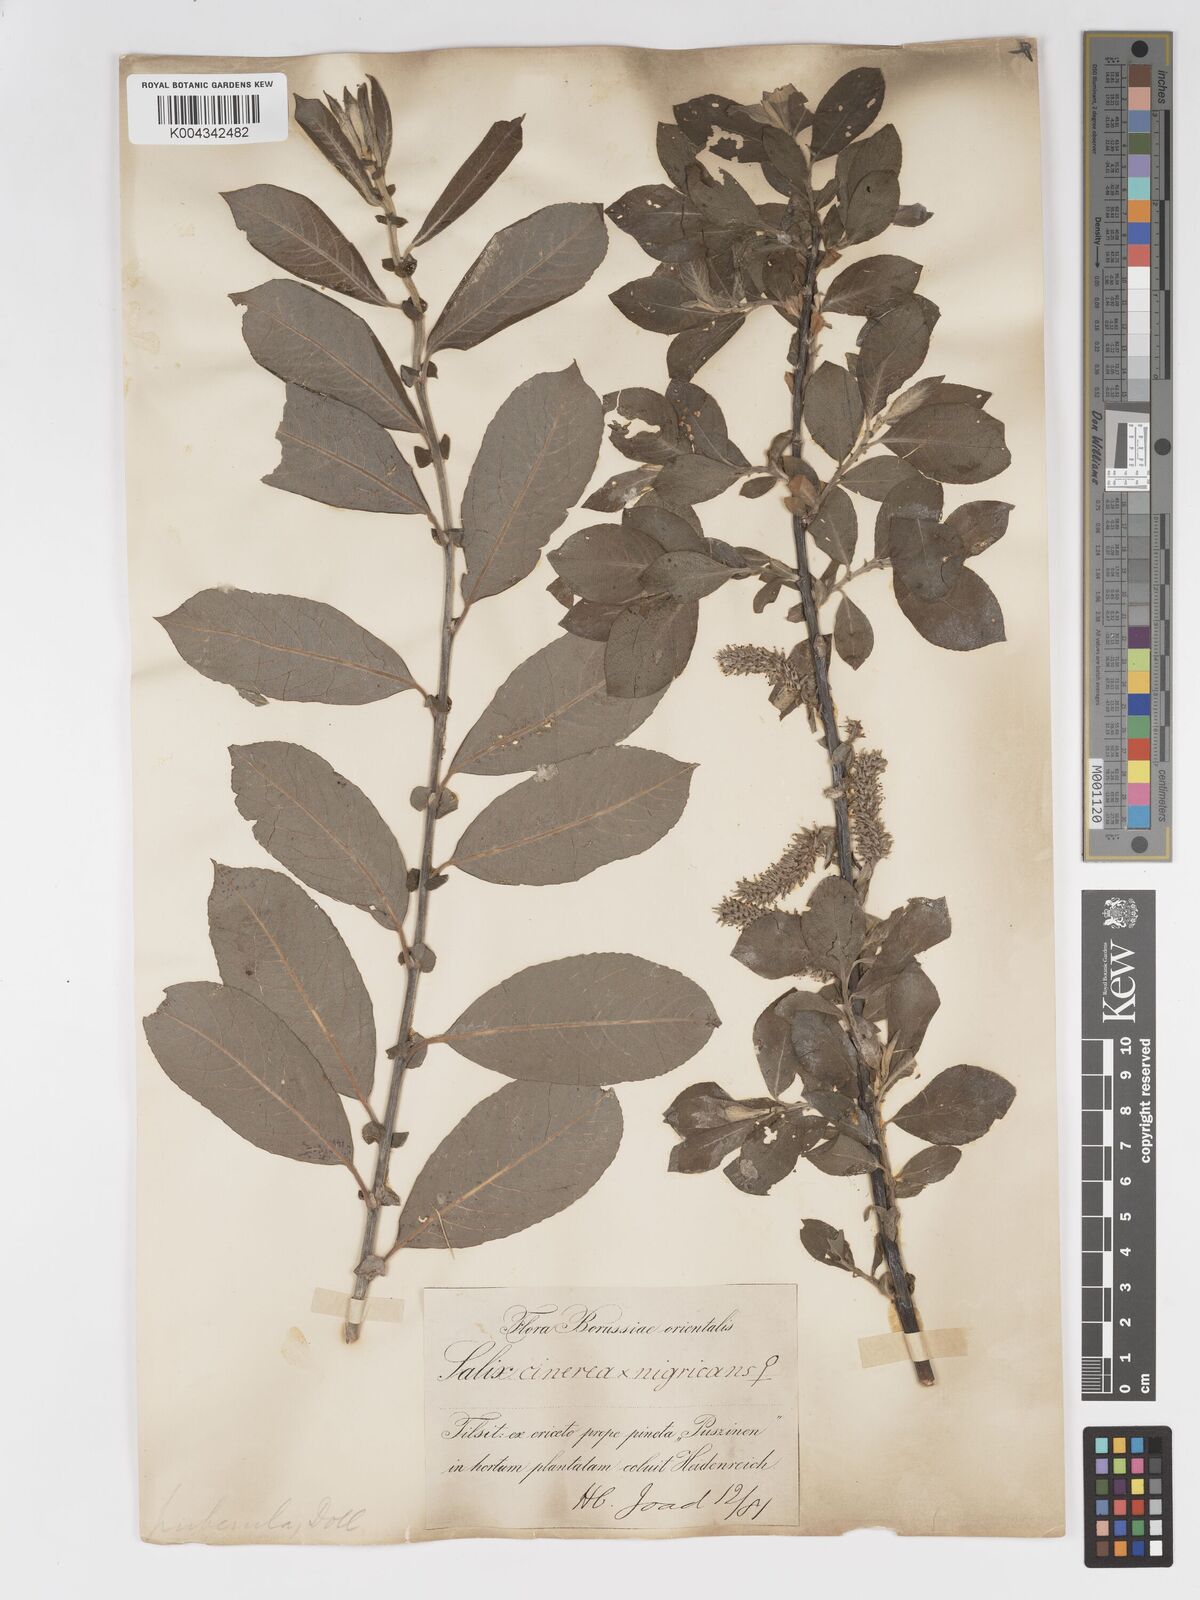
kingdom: Plantae
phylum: Tracheophyta
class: Magnoliopsida
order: Malpighiales
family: Salicaceae
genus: Salix
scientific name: Salix
